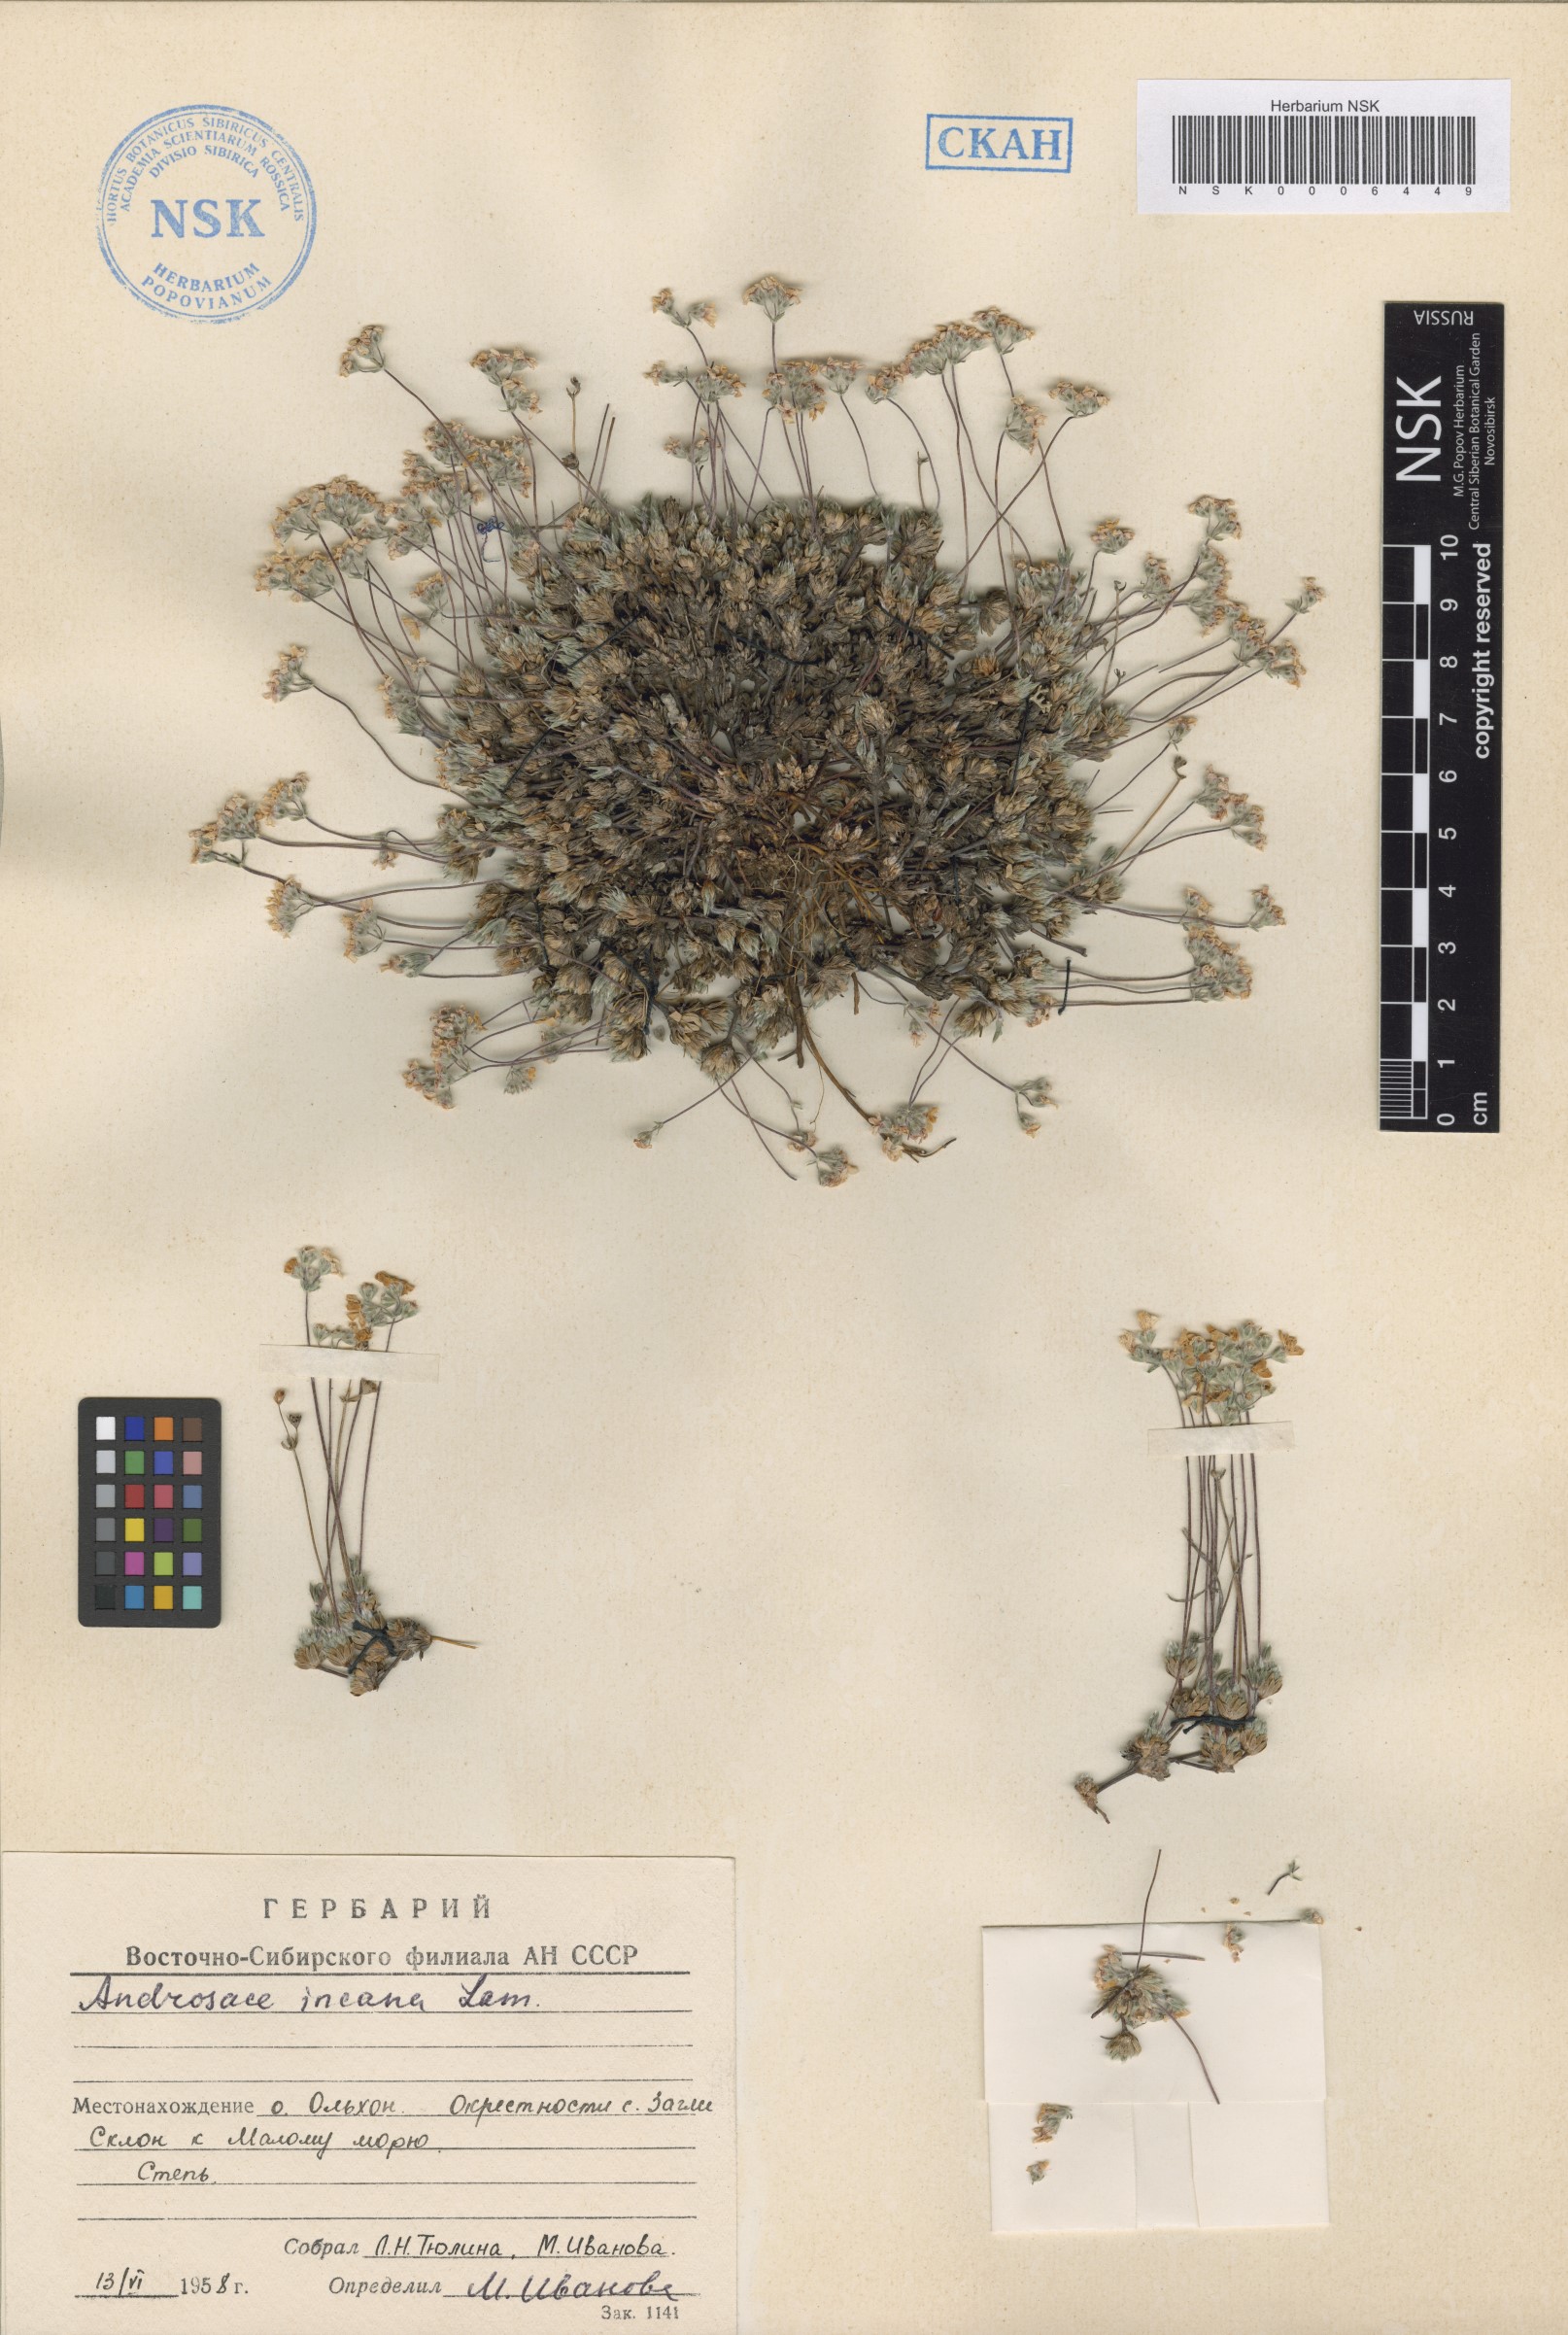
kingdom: Plantae
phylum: Tracheophyta
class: Magnoliopsida
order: Ericales
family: Primulaceae
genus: Androsace
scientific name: Androsace incana
